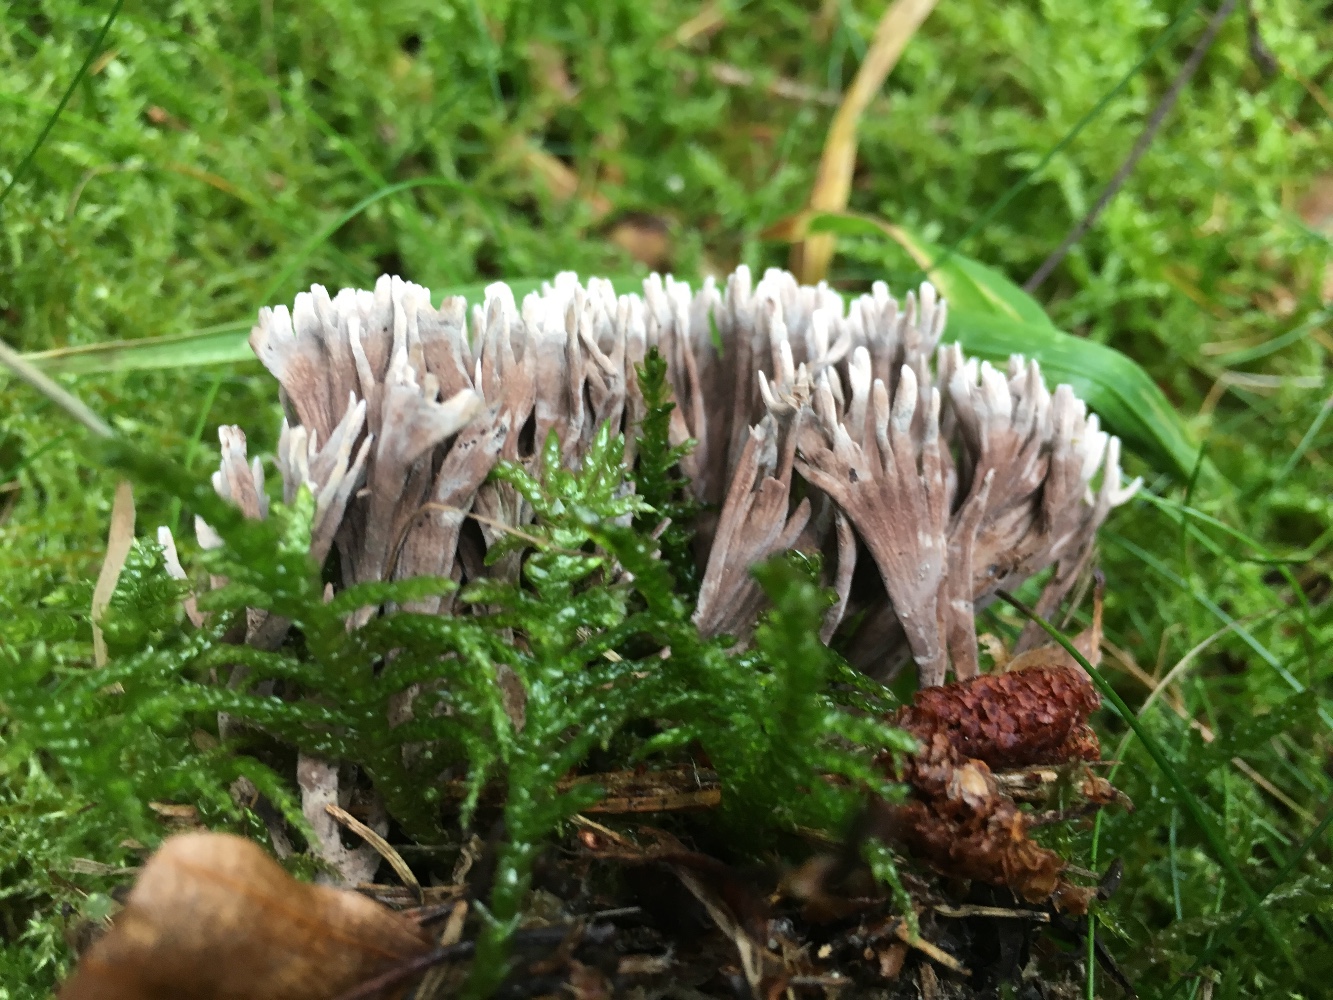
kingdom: Fungi
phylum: Basidiomycota
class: Agaricomycetes
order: Thelephorales
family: Thelephoraceae
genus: Thelephora
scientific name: Thelephora palmata
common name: grenet frynsesvamp
